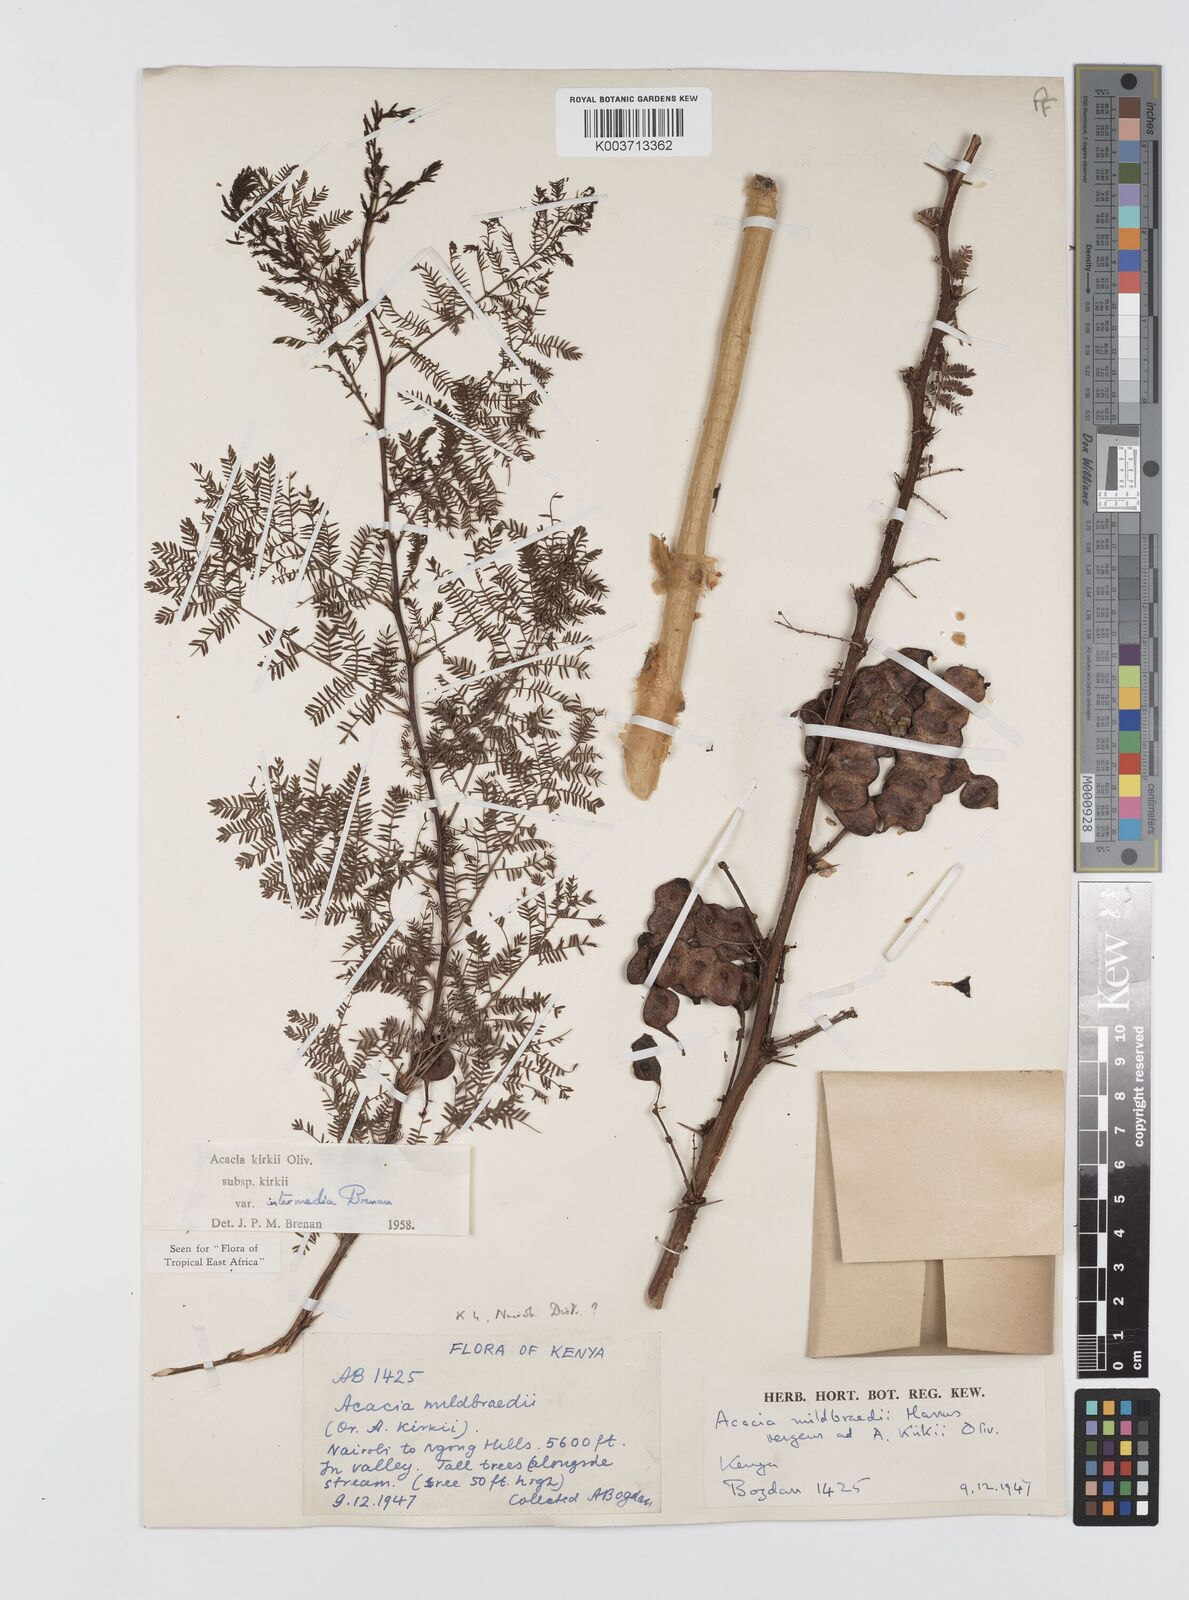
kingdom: Plantae
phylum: Tracheophyta
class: Magnoliopsida
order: Fabales
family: Fabaceae
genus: Vachellia
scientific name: Vachellia kirkii
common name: Flood-plain acacia
